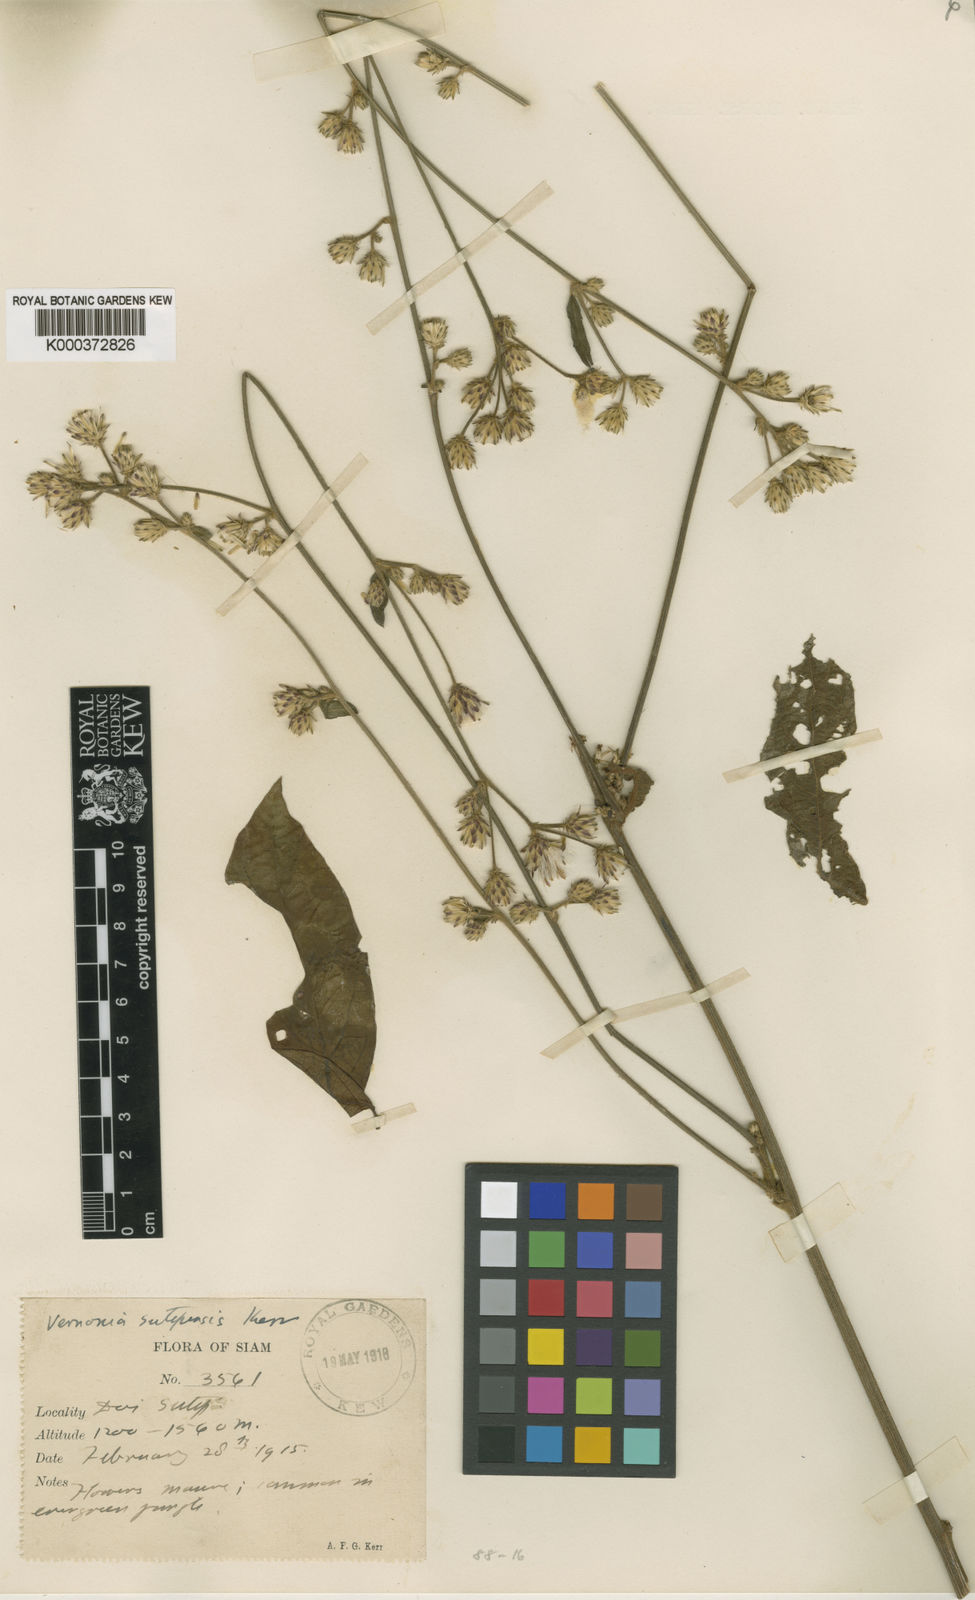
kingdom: Plantae
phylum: Tracheophyta
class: Magnoliopsida
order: Asterales
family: Asteraceae
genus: Acilepis
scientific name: Acilepis sutepensis
